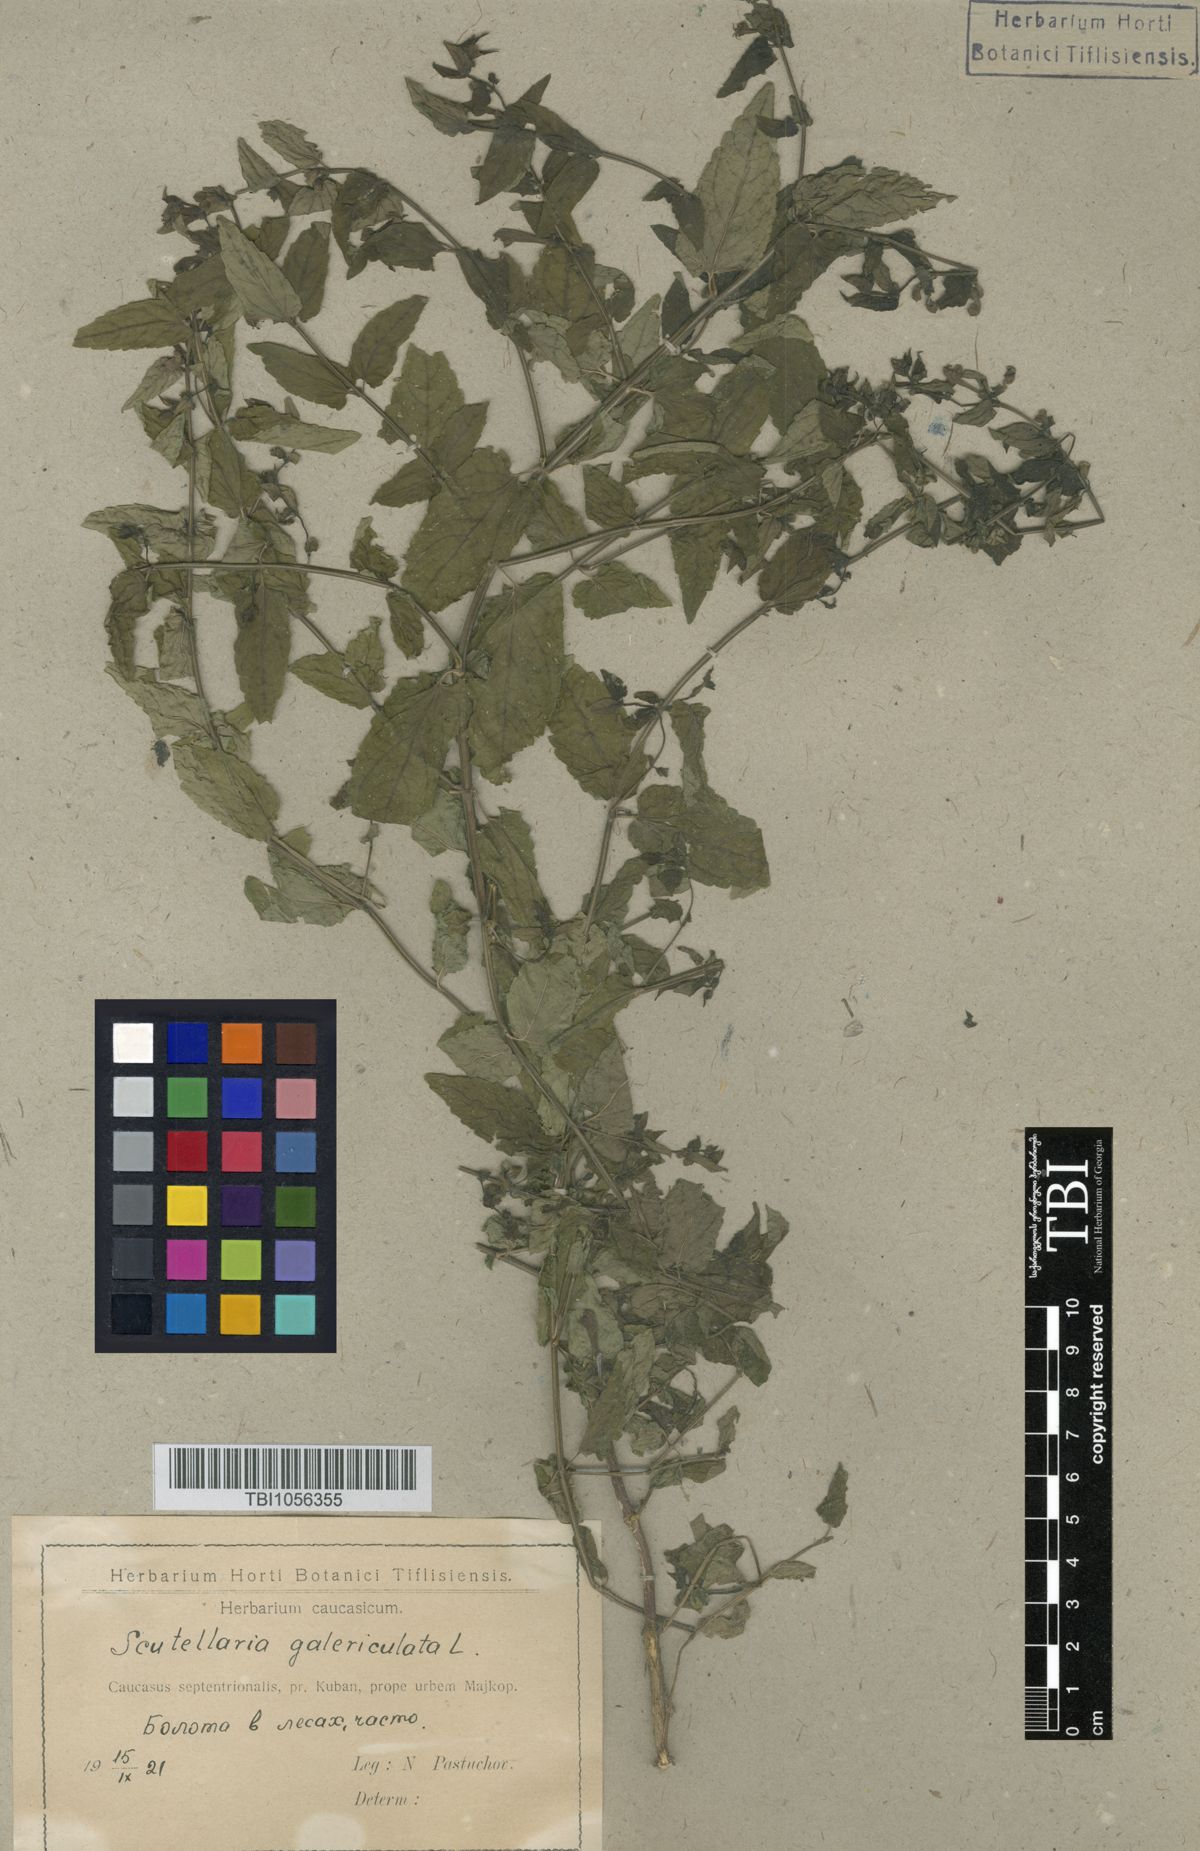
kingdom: Plantae
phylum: Tracheophyta
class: Magnoliopsida
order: Lamiales
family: Lamiaceae
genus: Scutellaria
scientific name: Scutellaria galericulata
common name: Skullcap
